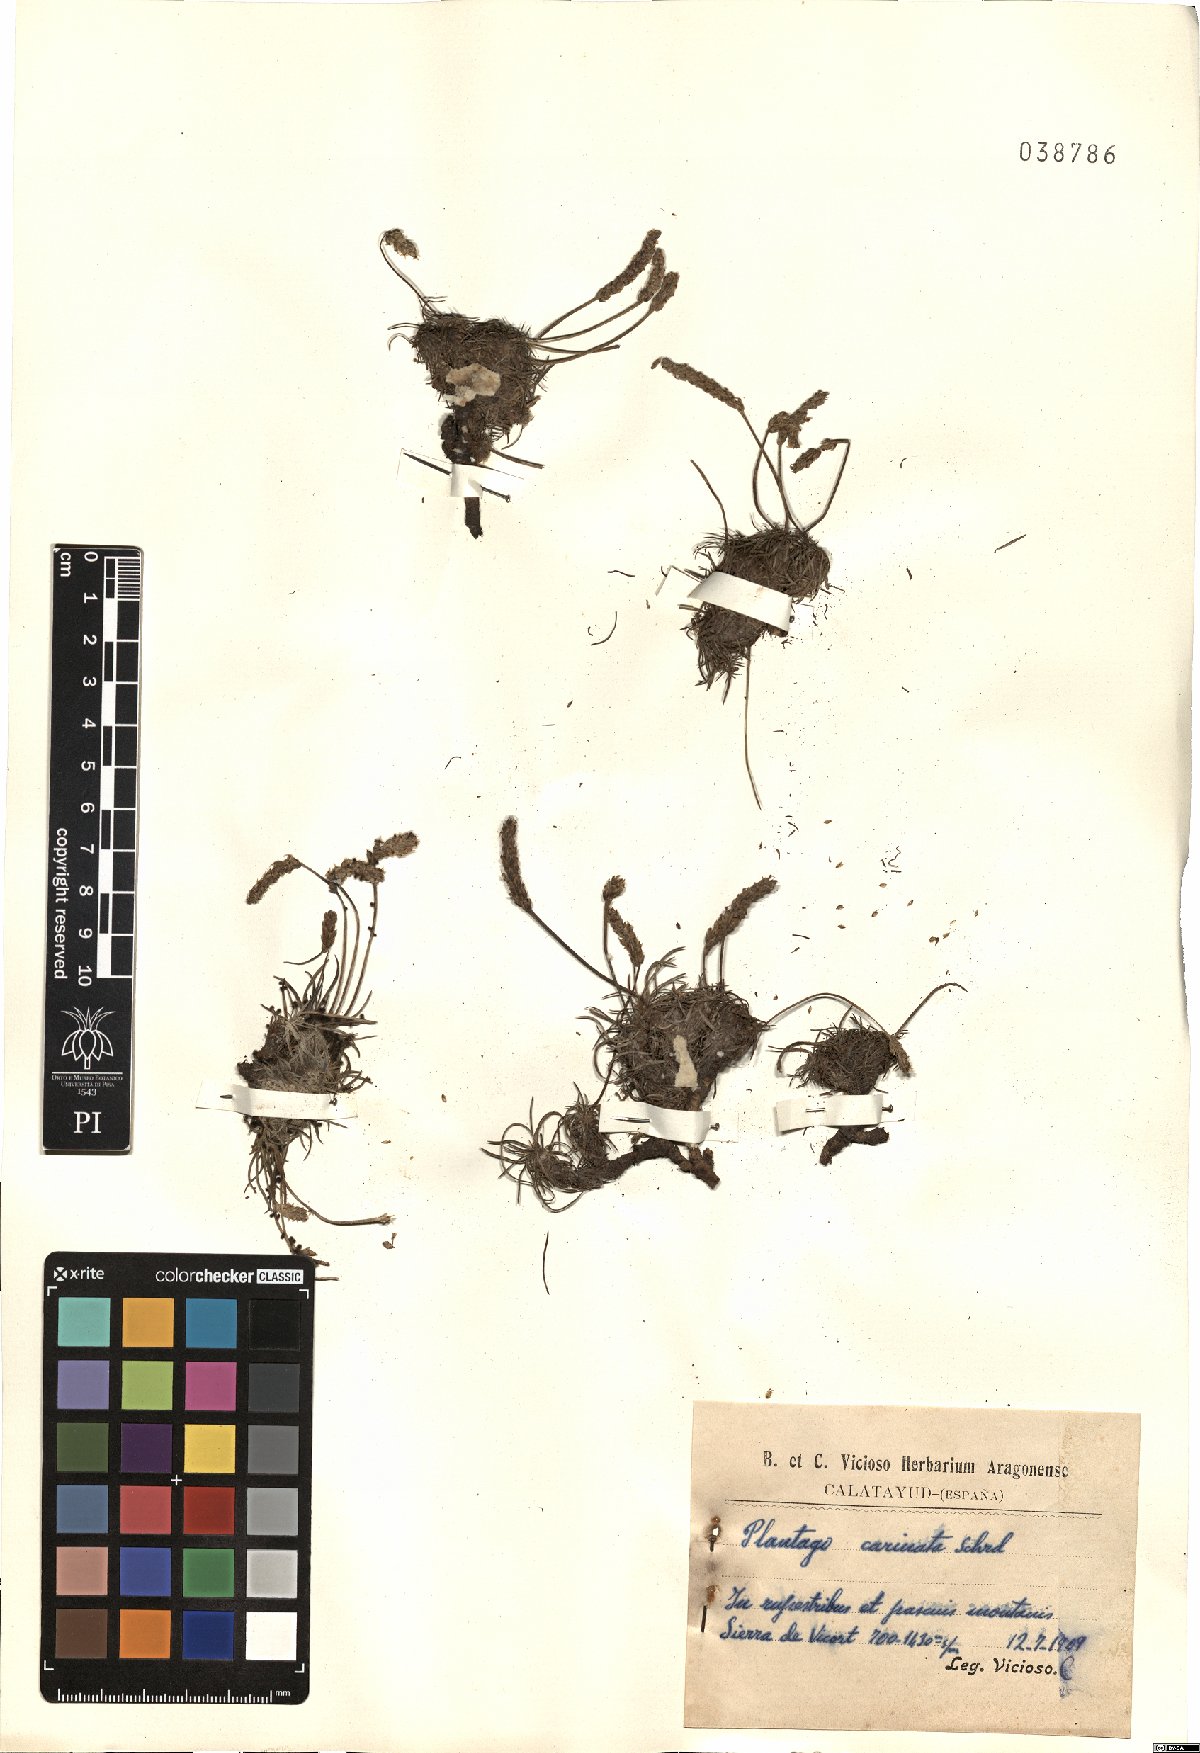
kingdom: Plantae
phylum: Tracheophyta
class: Magnoliopsida
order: Lamiales
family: Plantaginaceae
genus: Plantago
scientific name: Plantago subulata
